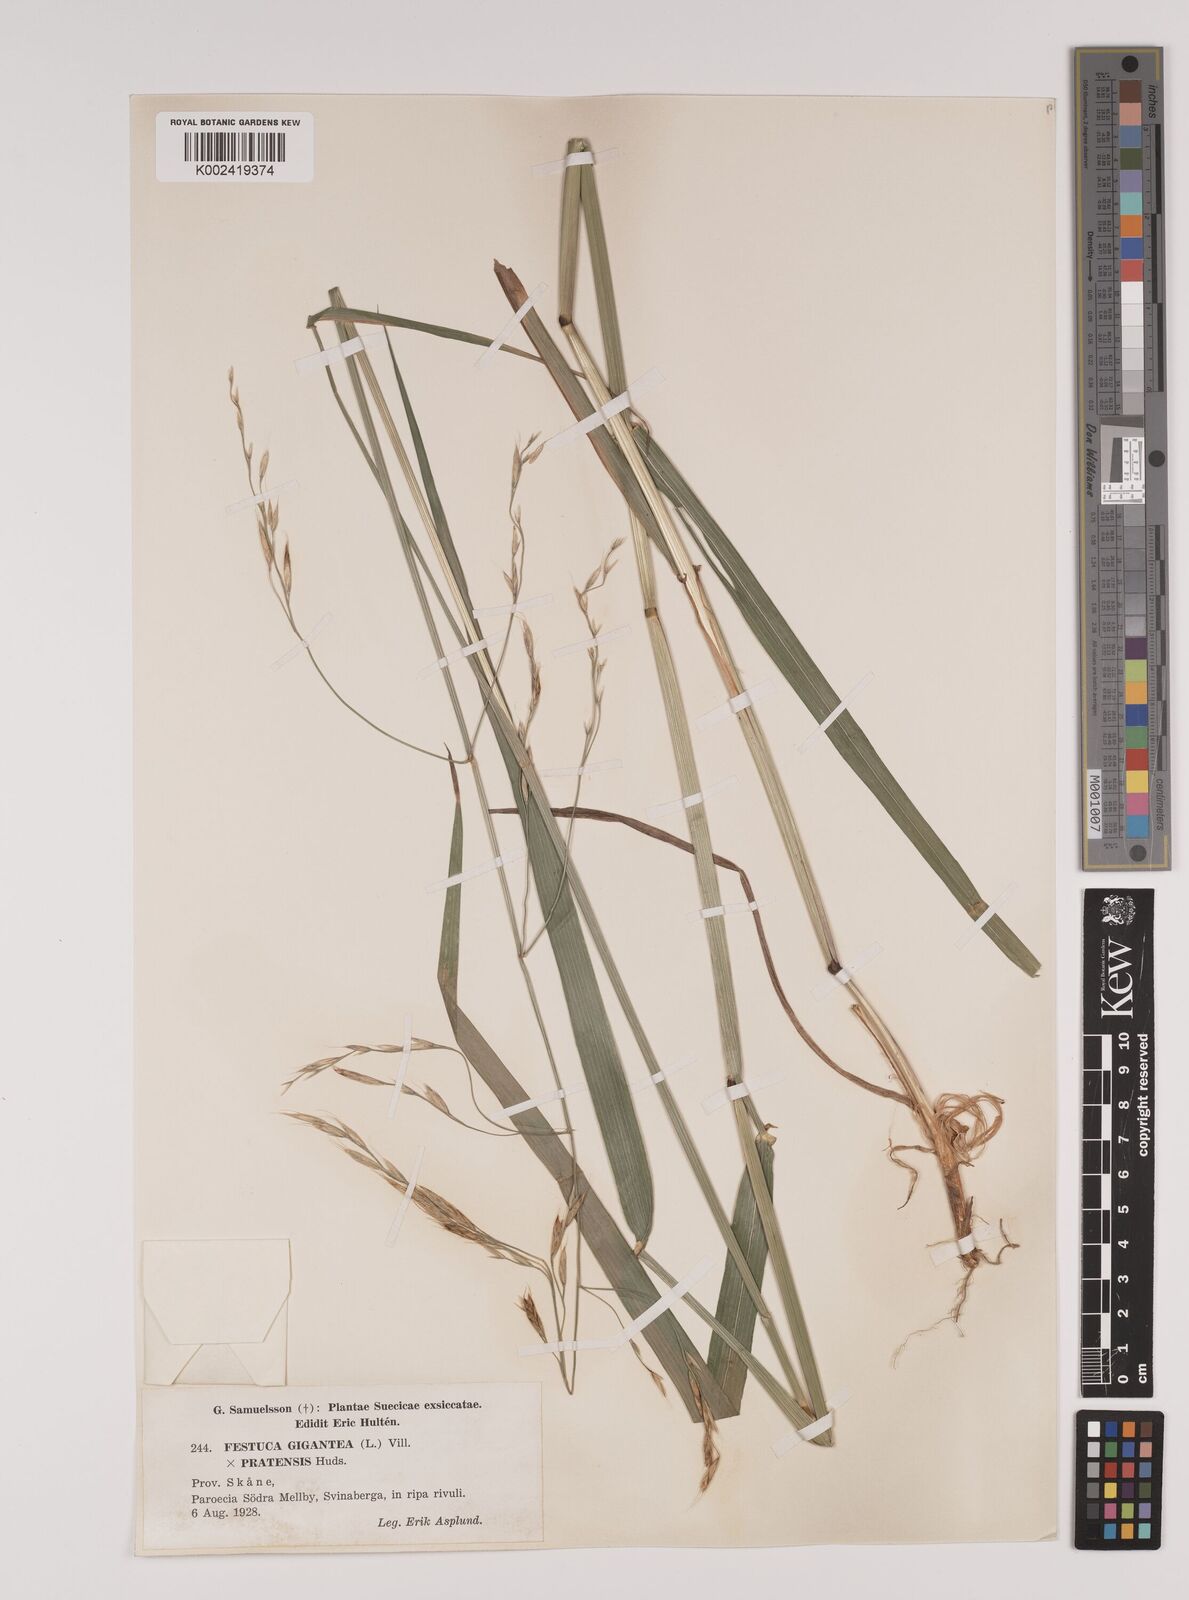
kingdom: Plantae
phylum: Tracheophyta
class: Liliopsida
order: Poales
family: Poaceae
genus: Lolium
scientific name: Lolium giganteum
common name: Giant fescue
